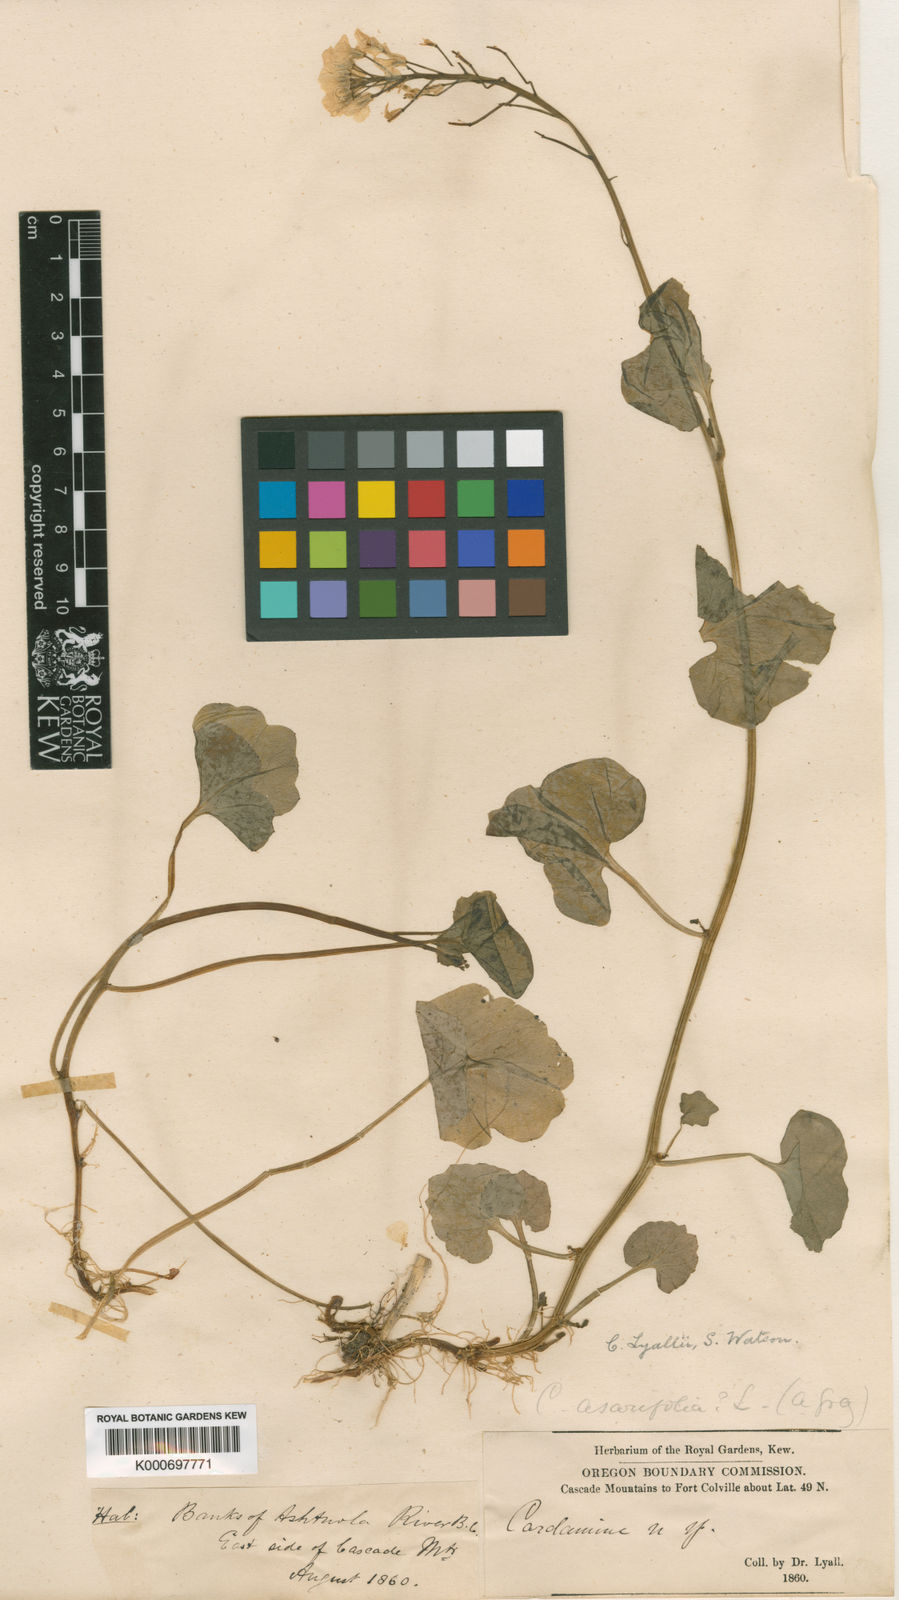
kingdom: Plantae
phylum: Tracheophyta
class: Magnoliopsida
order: Brassicales
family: Brassicaceae
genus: Cardamine
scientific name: Cardamine cordifolia
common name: Heart-leaf bittercress
